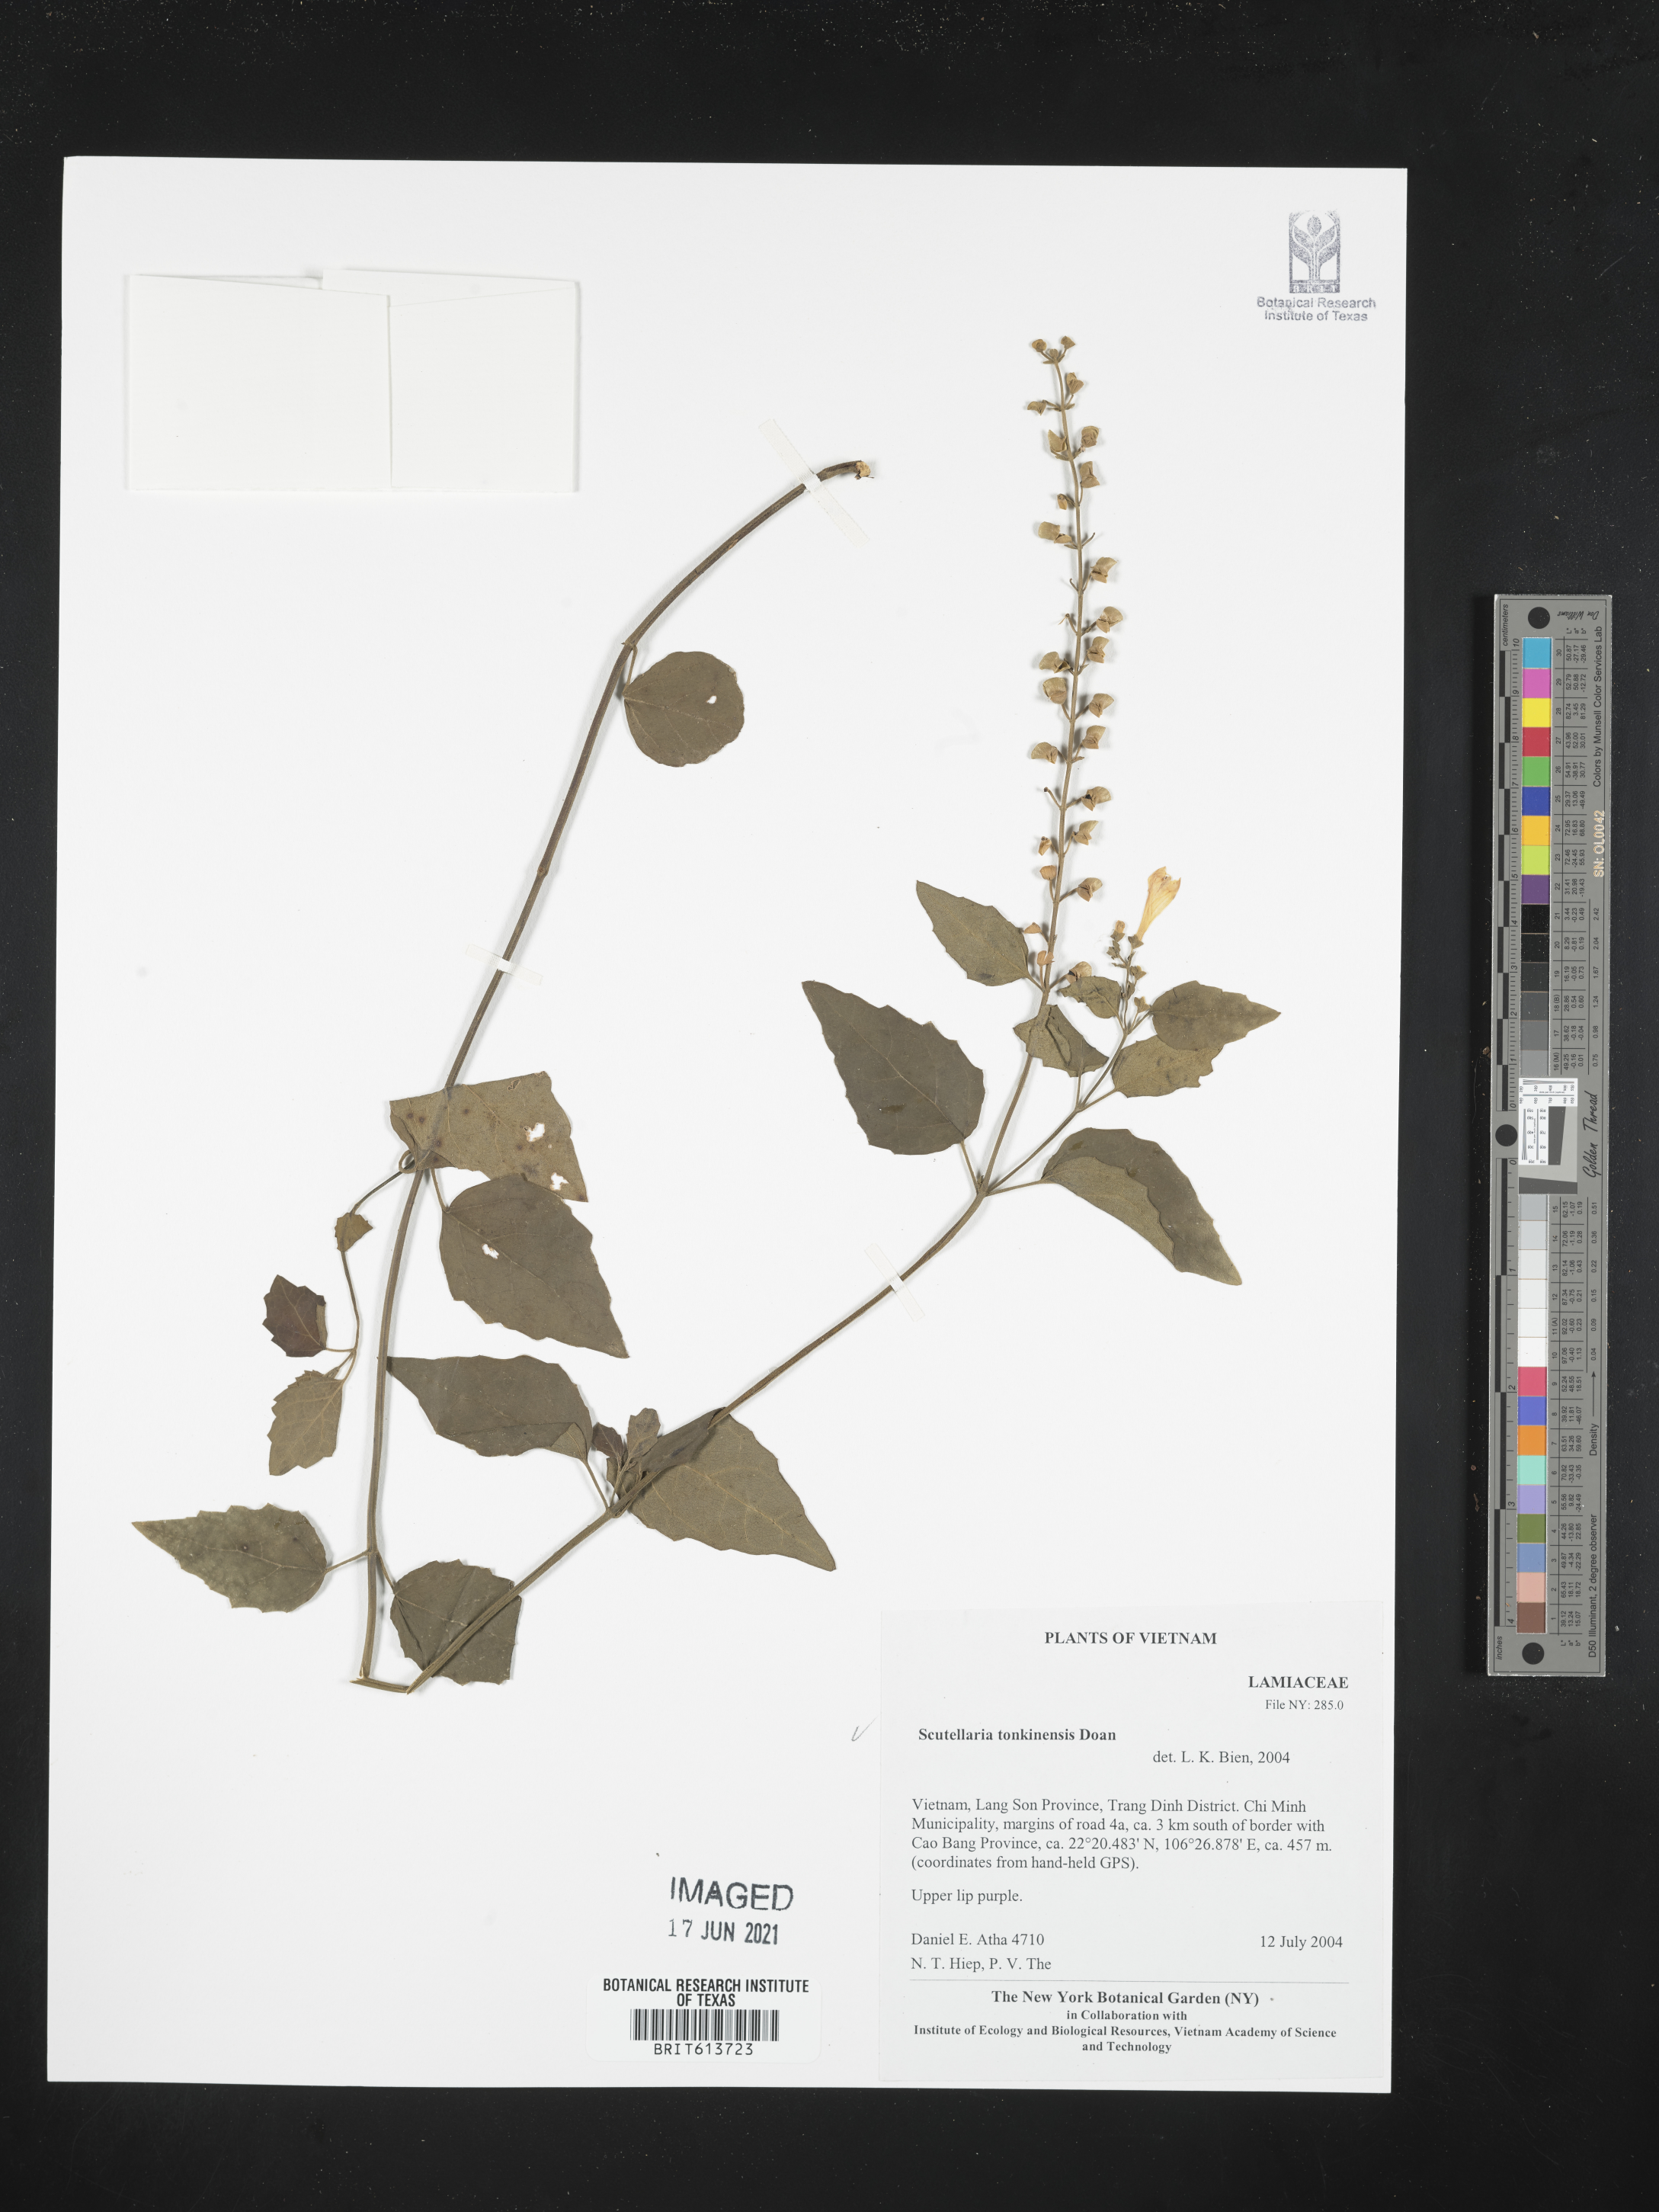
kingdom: Plantae
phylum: Tracheophyta
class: Magnoliopsida
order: Lamiales
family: Lamiaceae
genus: Scutellaria
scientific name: Scutellaria tonkinensis
